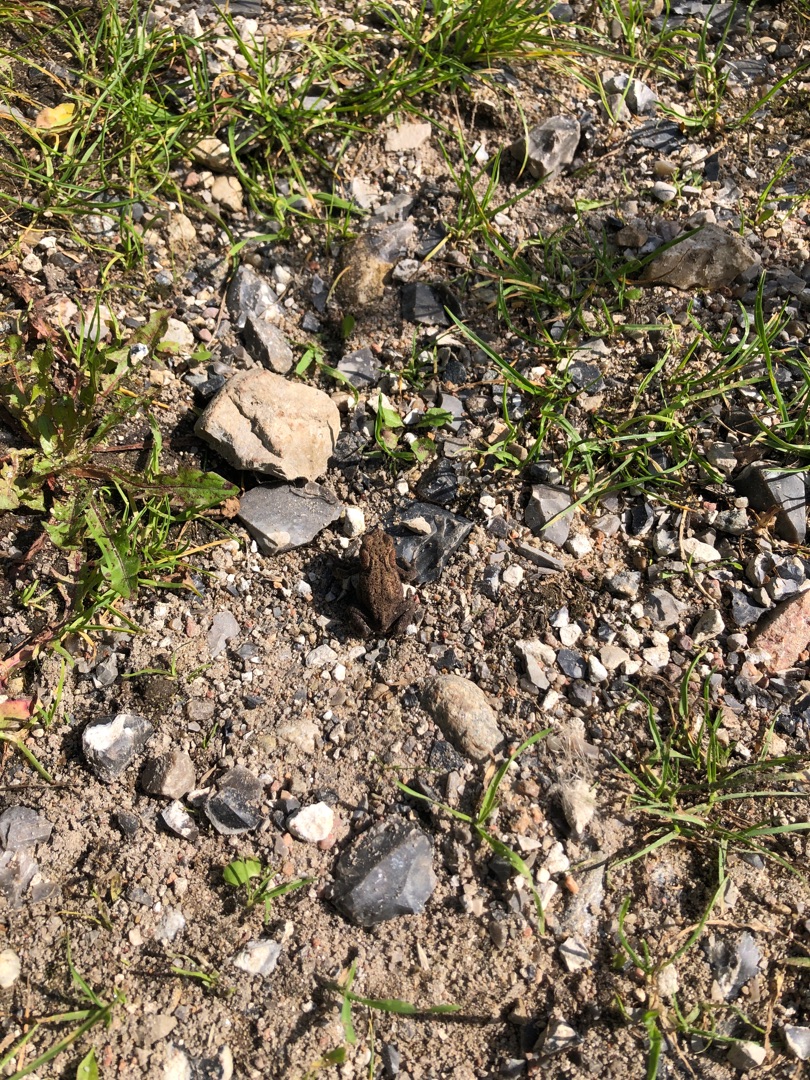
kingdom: Animalia
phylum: Chordata
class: Amphibia
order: Anura
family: Bufonidae
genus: Bufo
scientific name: Bufo bufo
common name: Skrubtudse
